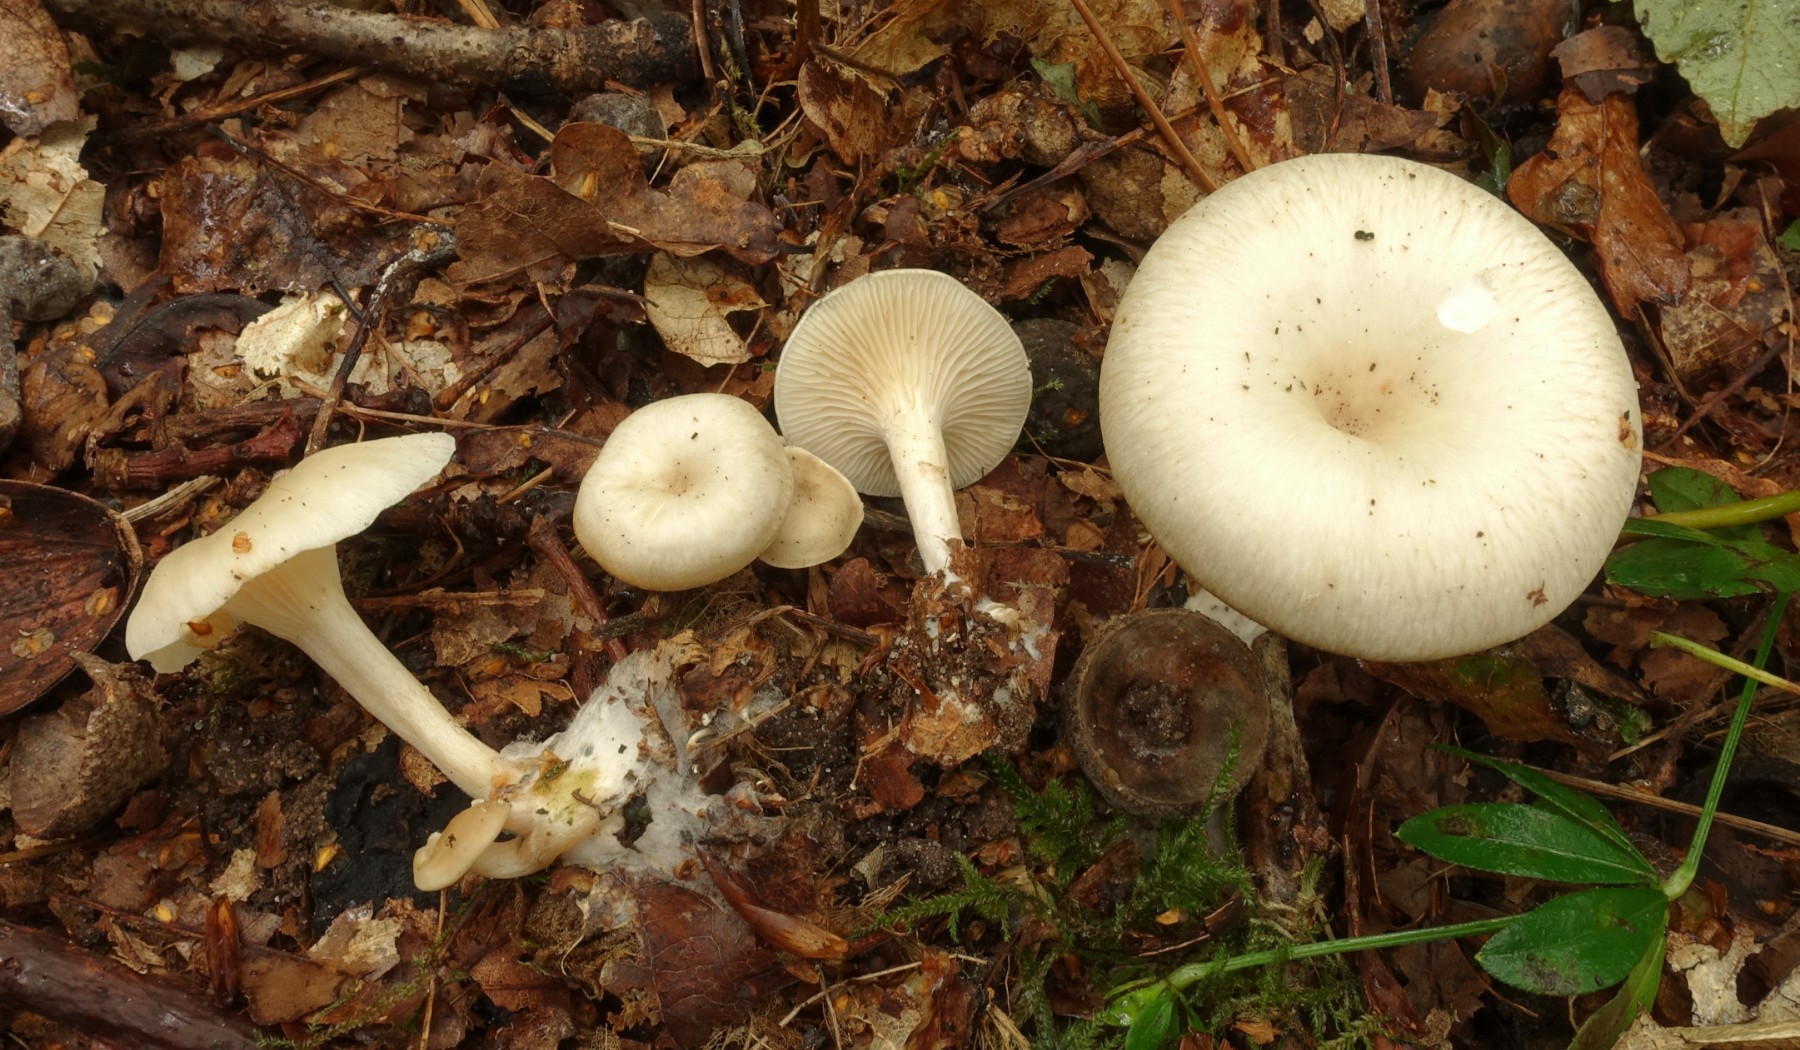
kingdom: Fungi
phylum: Basidiomycota
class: Agaricomycetes
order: Agaricales
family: Tricholomataceae
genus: Clitocybe
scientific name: Clitocybe phaeophthalma
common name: stinkende tragthat
